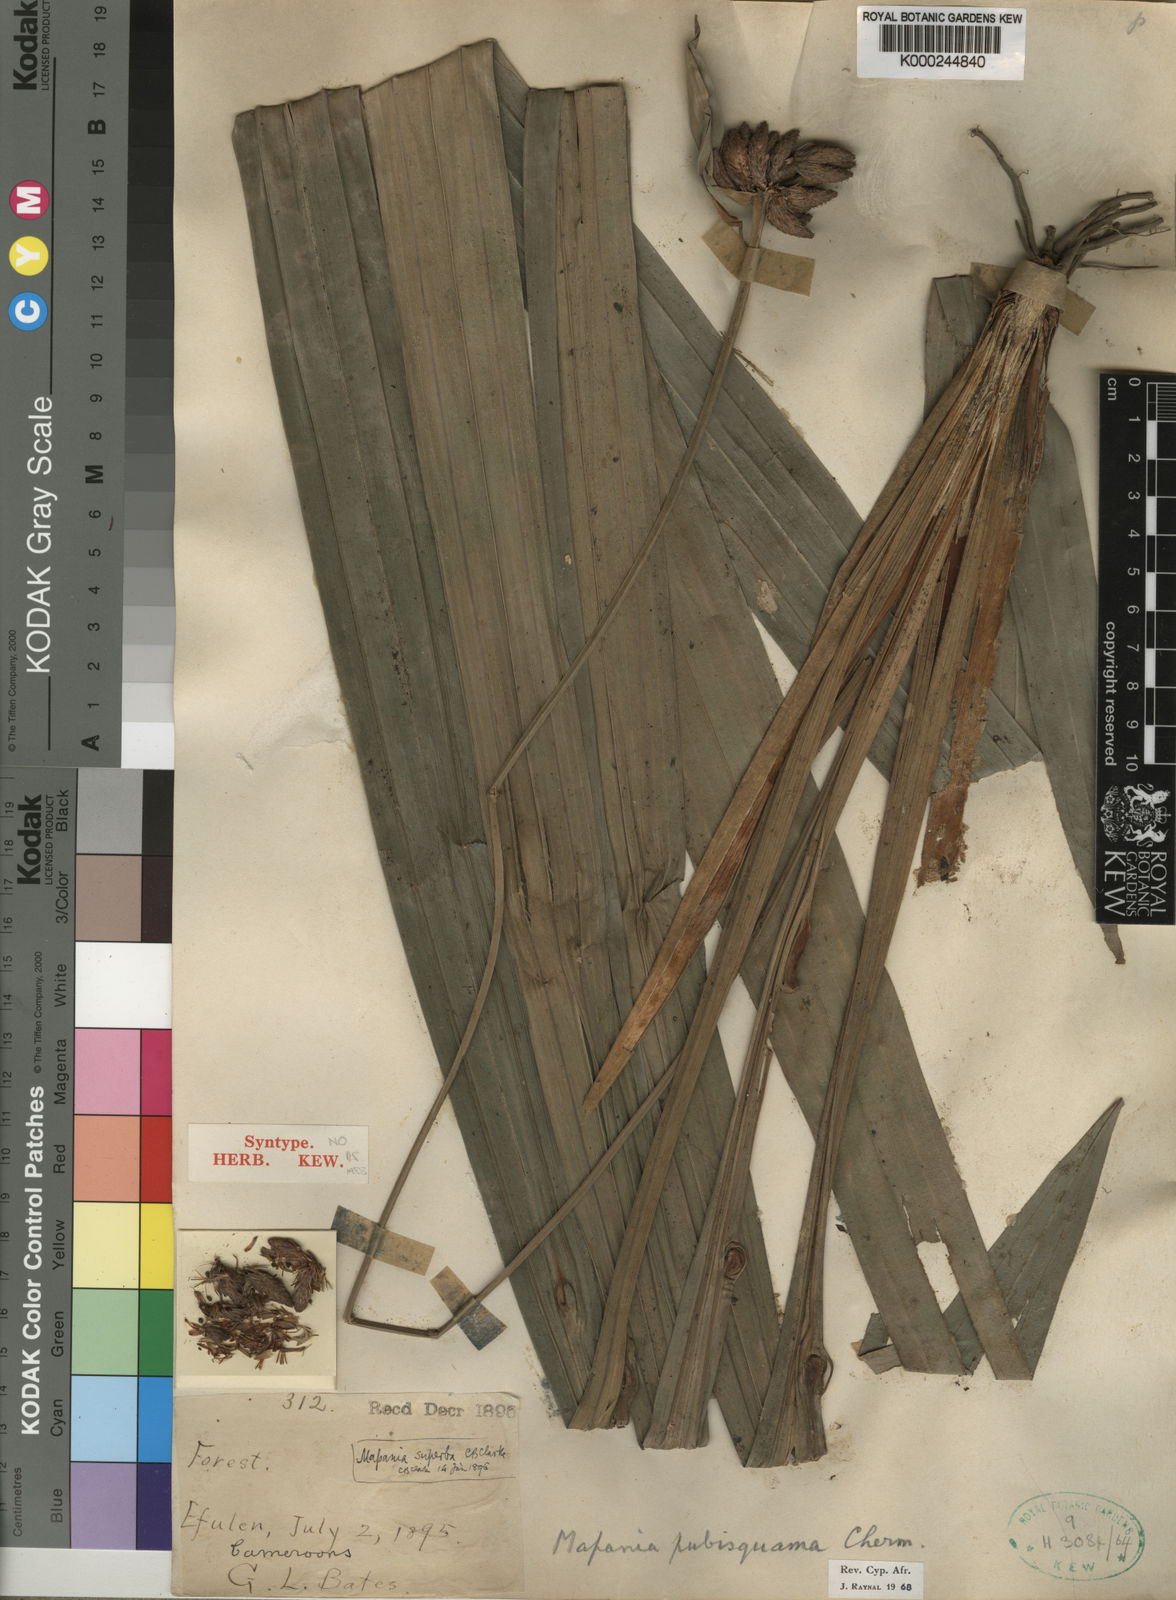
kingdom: Plantae
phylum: Tracheophyta
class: Liliopsida
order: Poales
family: Cyperaceae
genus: Mapania
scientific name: Mapania pubisquama
